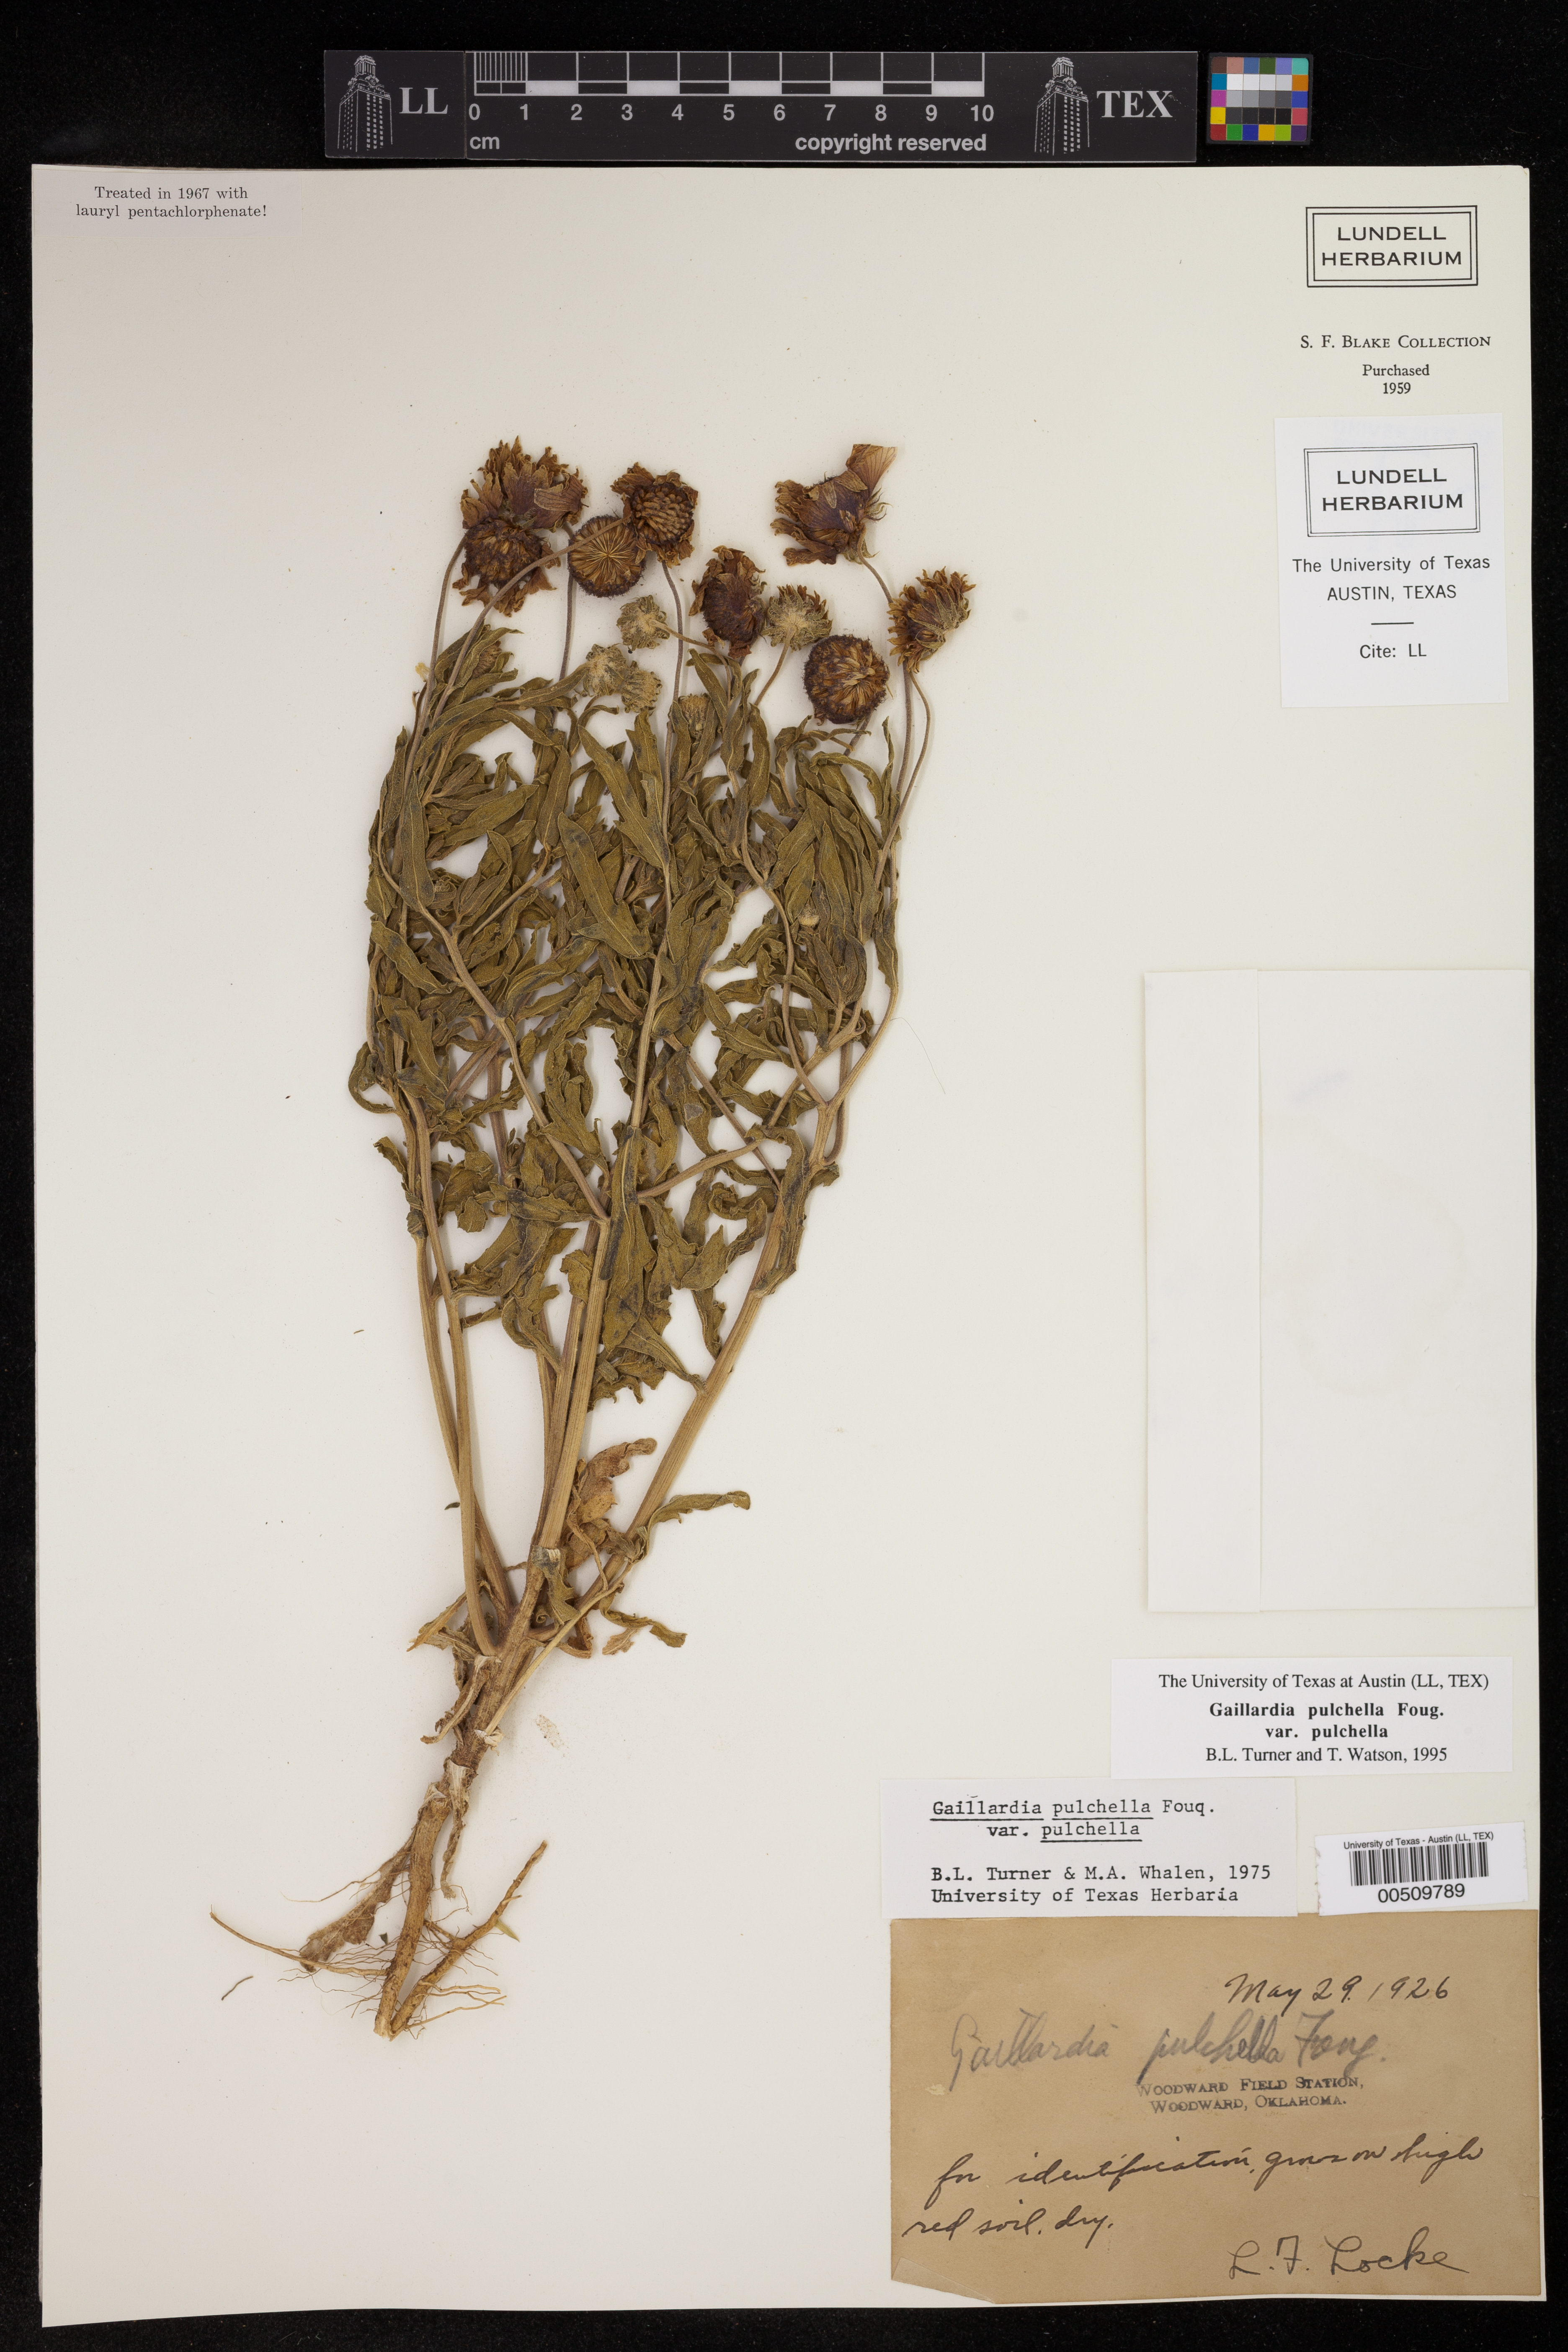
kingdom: Plantae
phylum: Tracheophyta
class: Magnoliopsida
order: Asterales
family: Asteraceae
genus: Gaillardia
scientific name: Gaillardia pulchella
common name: Firewheel
